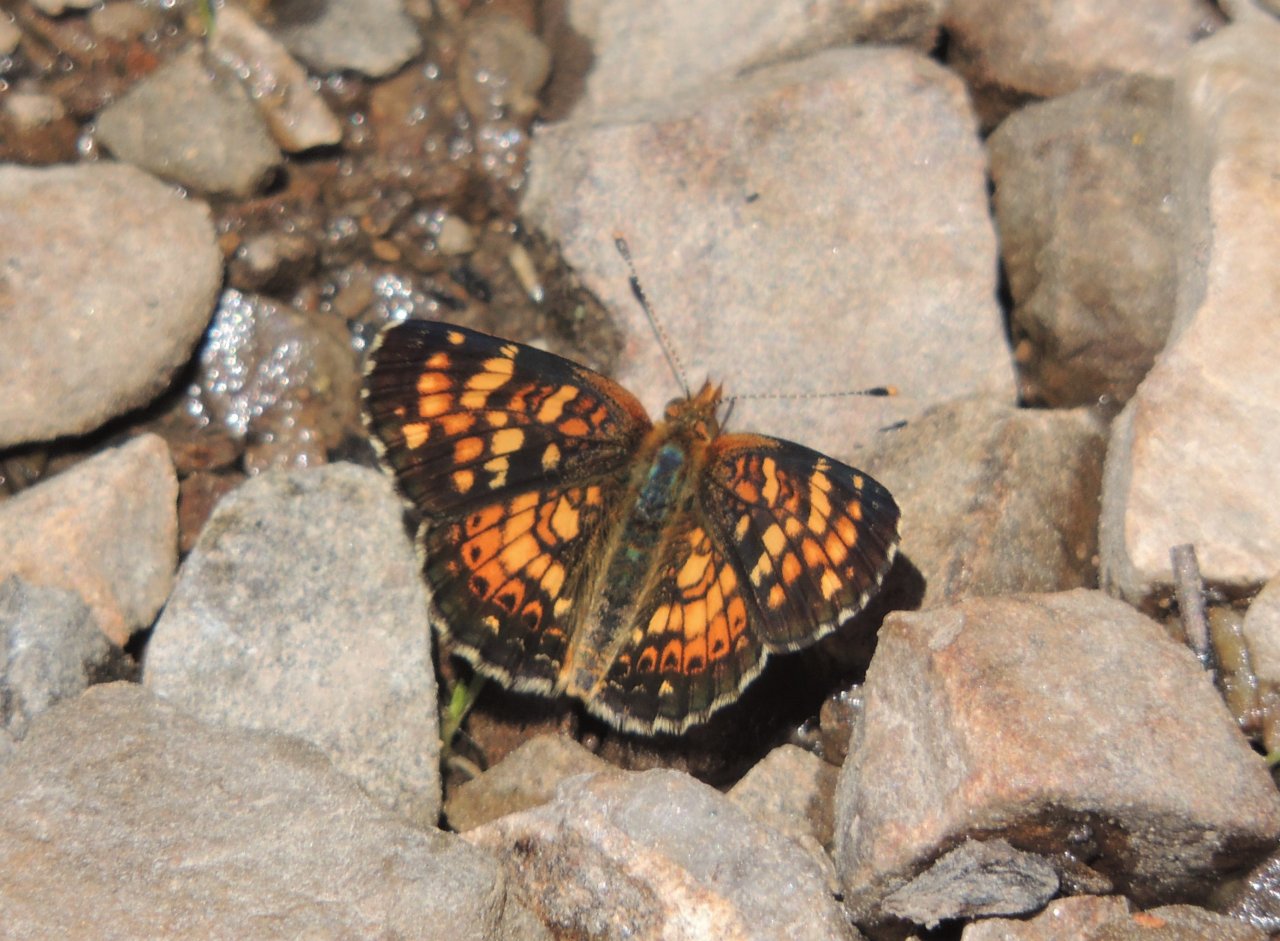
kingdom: Animalia
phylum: Arthropoda
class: Insecta
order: Lepidoptera
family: Nymphalidae
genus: Phyciodes
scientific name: Phyciodes tharos
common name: Field Crescent
